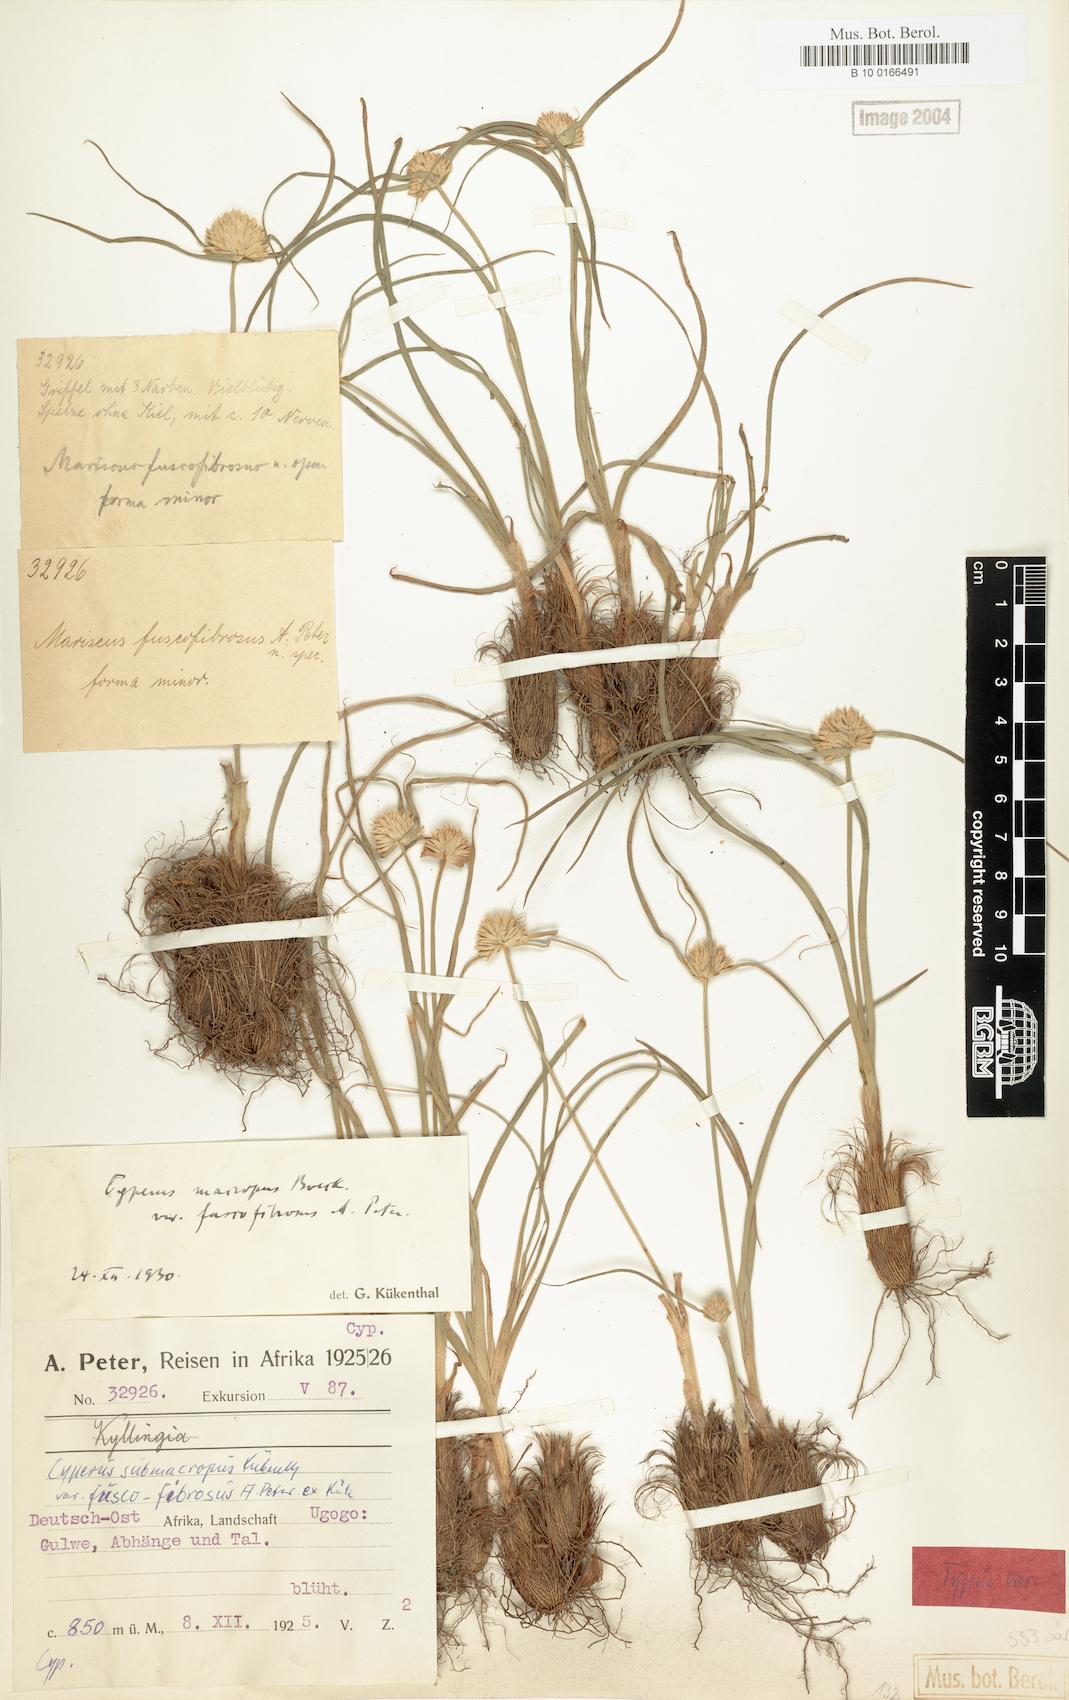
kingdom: Plantae
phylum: Tracheophyta
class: Liliopsida
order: Poales
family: Cyperaceae
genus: Cyperus
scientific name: Cyperus mollipes
